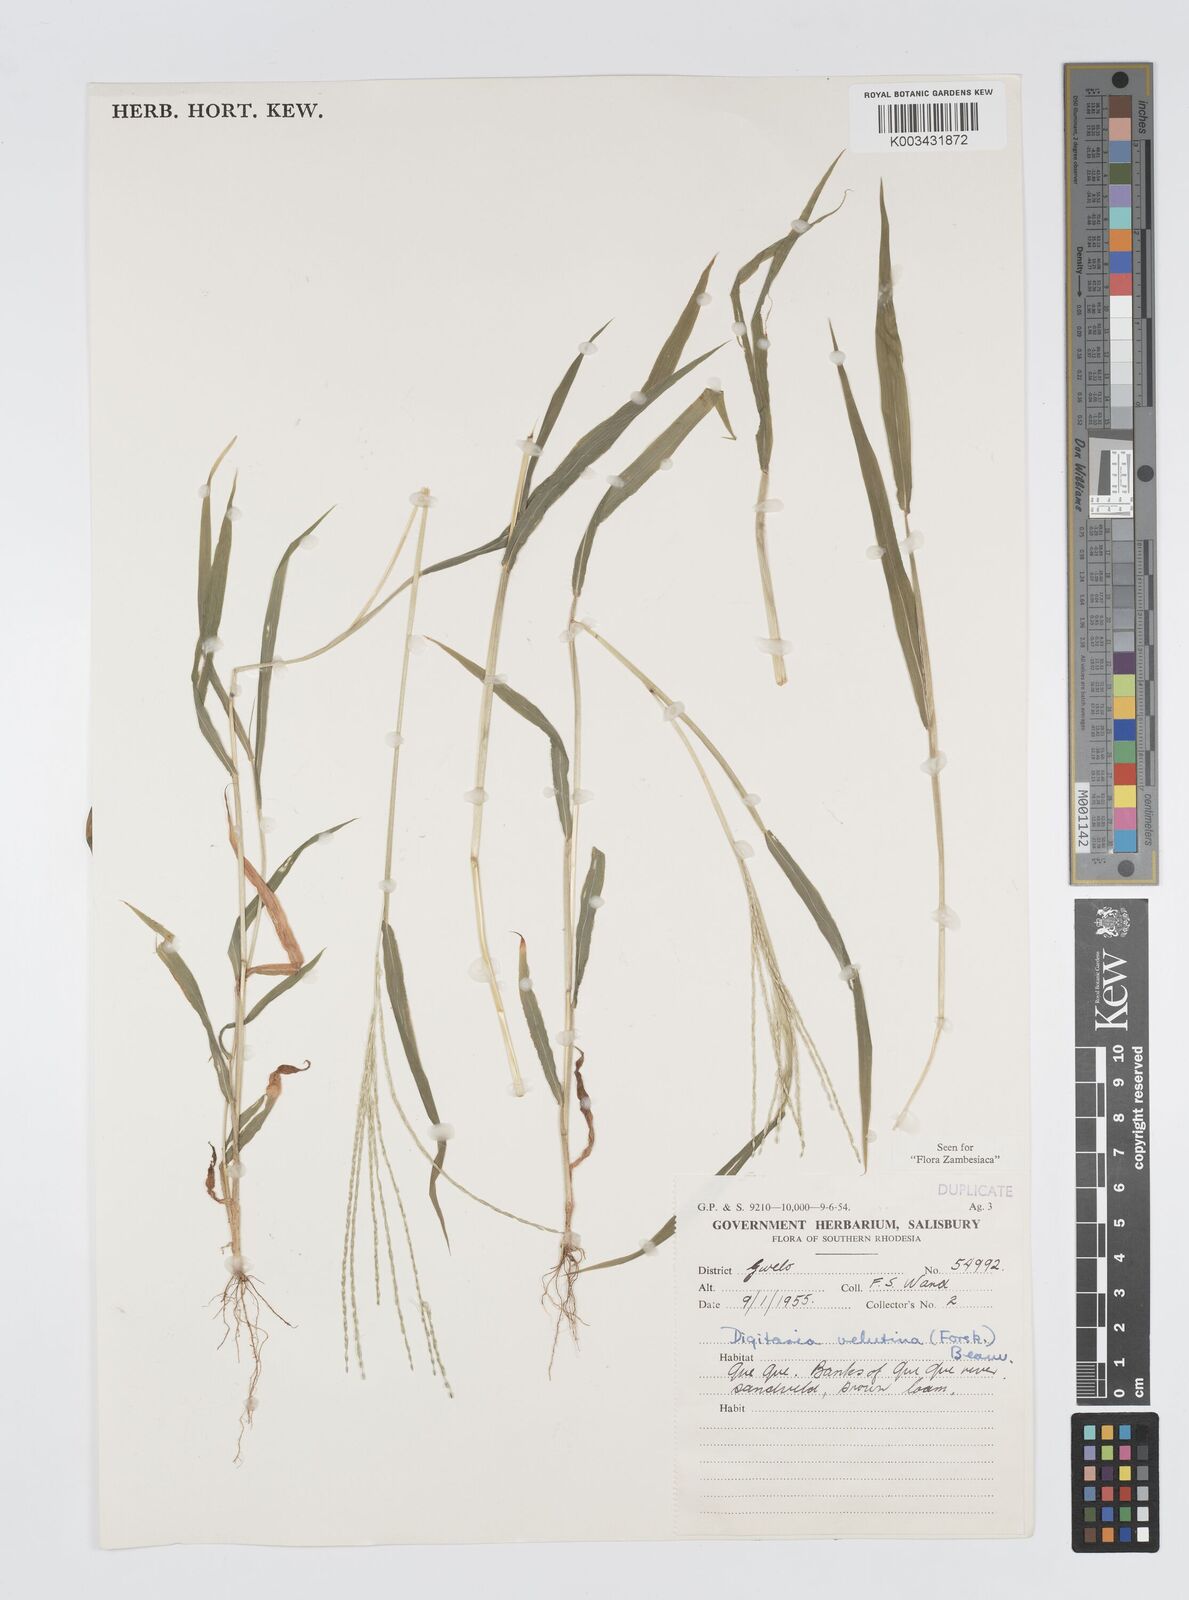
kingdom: Plantae
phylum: Tracheophyta
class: Liliopsida
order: Poales
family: Poaceae
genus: Digitaria
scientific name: Digitaria velutina
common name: Long-plume finger grass
